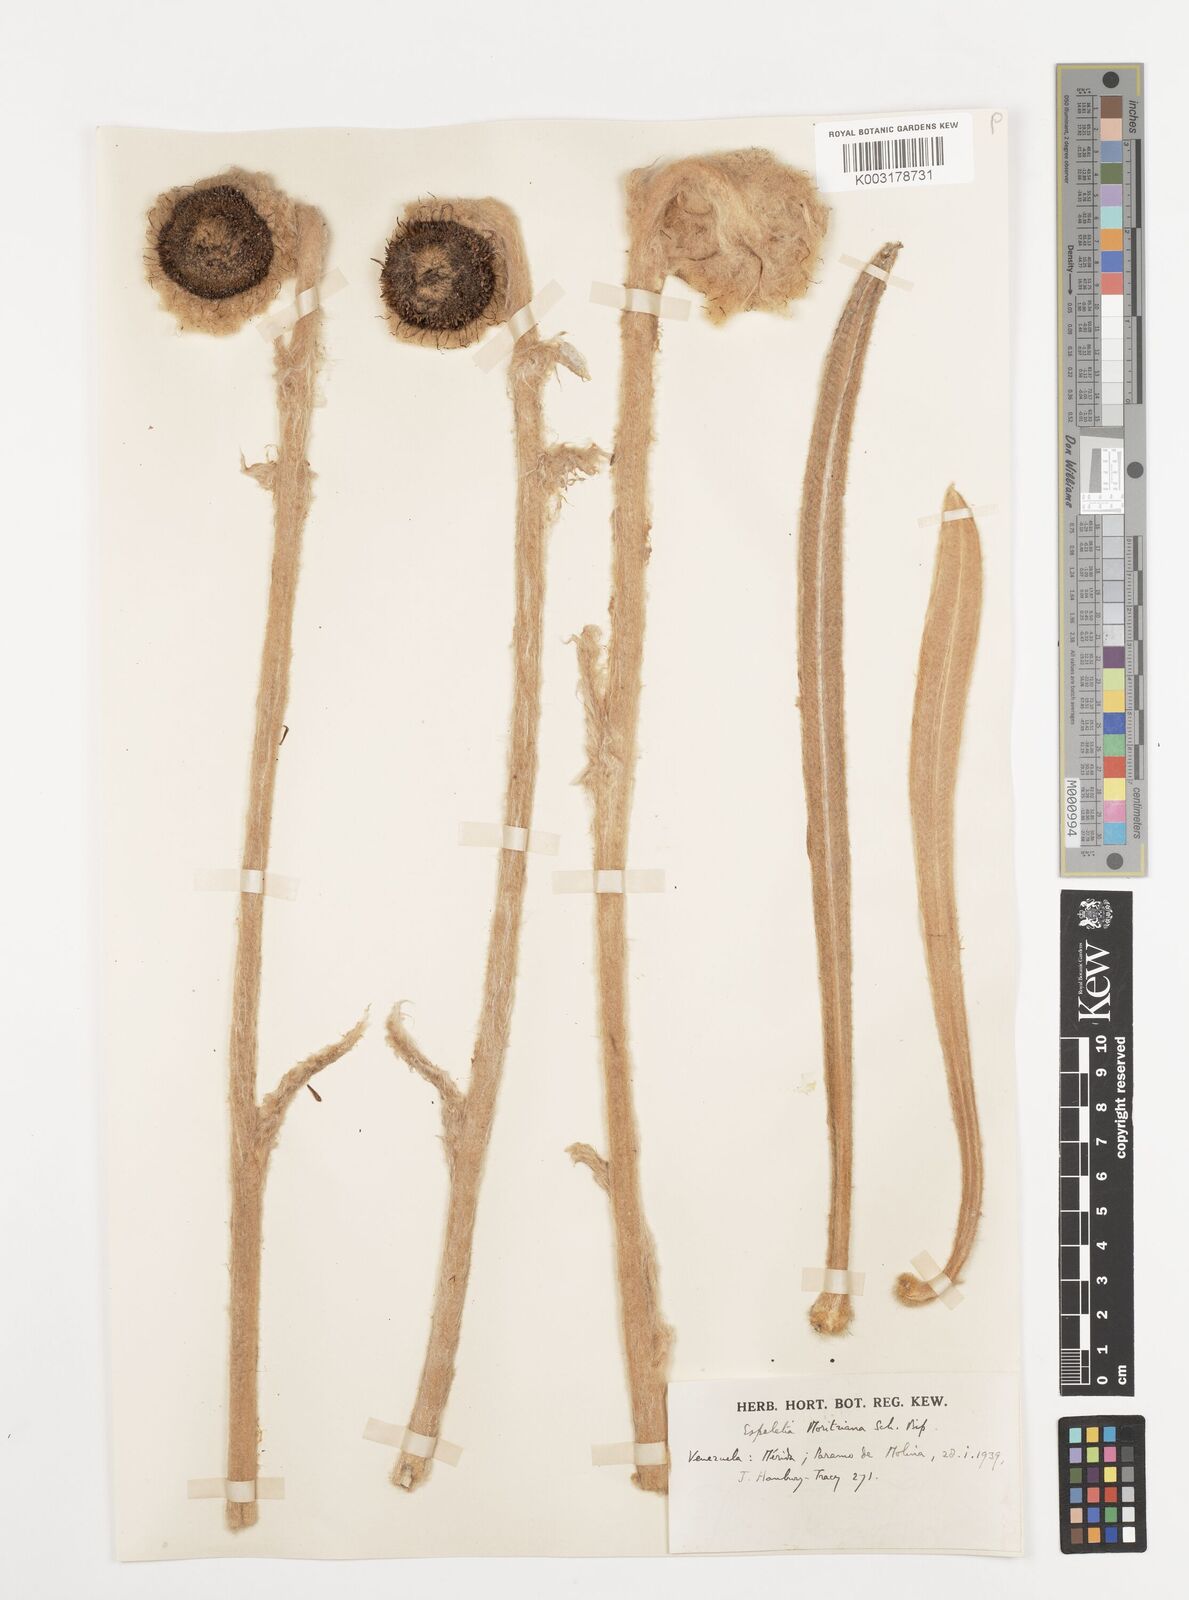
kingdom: Plantae
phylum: Tracheophyta
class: Magnoliopsida
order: Asterales
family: Asteraceae
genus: Espeletia
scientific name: Espeletia moritziana
